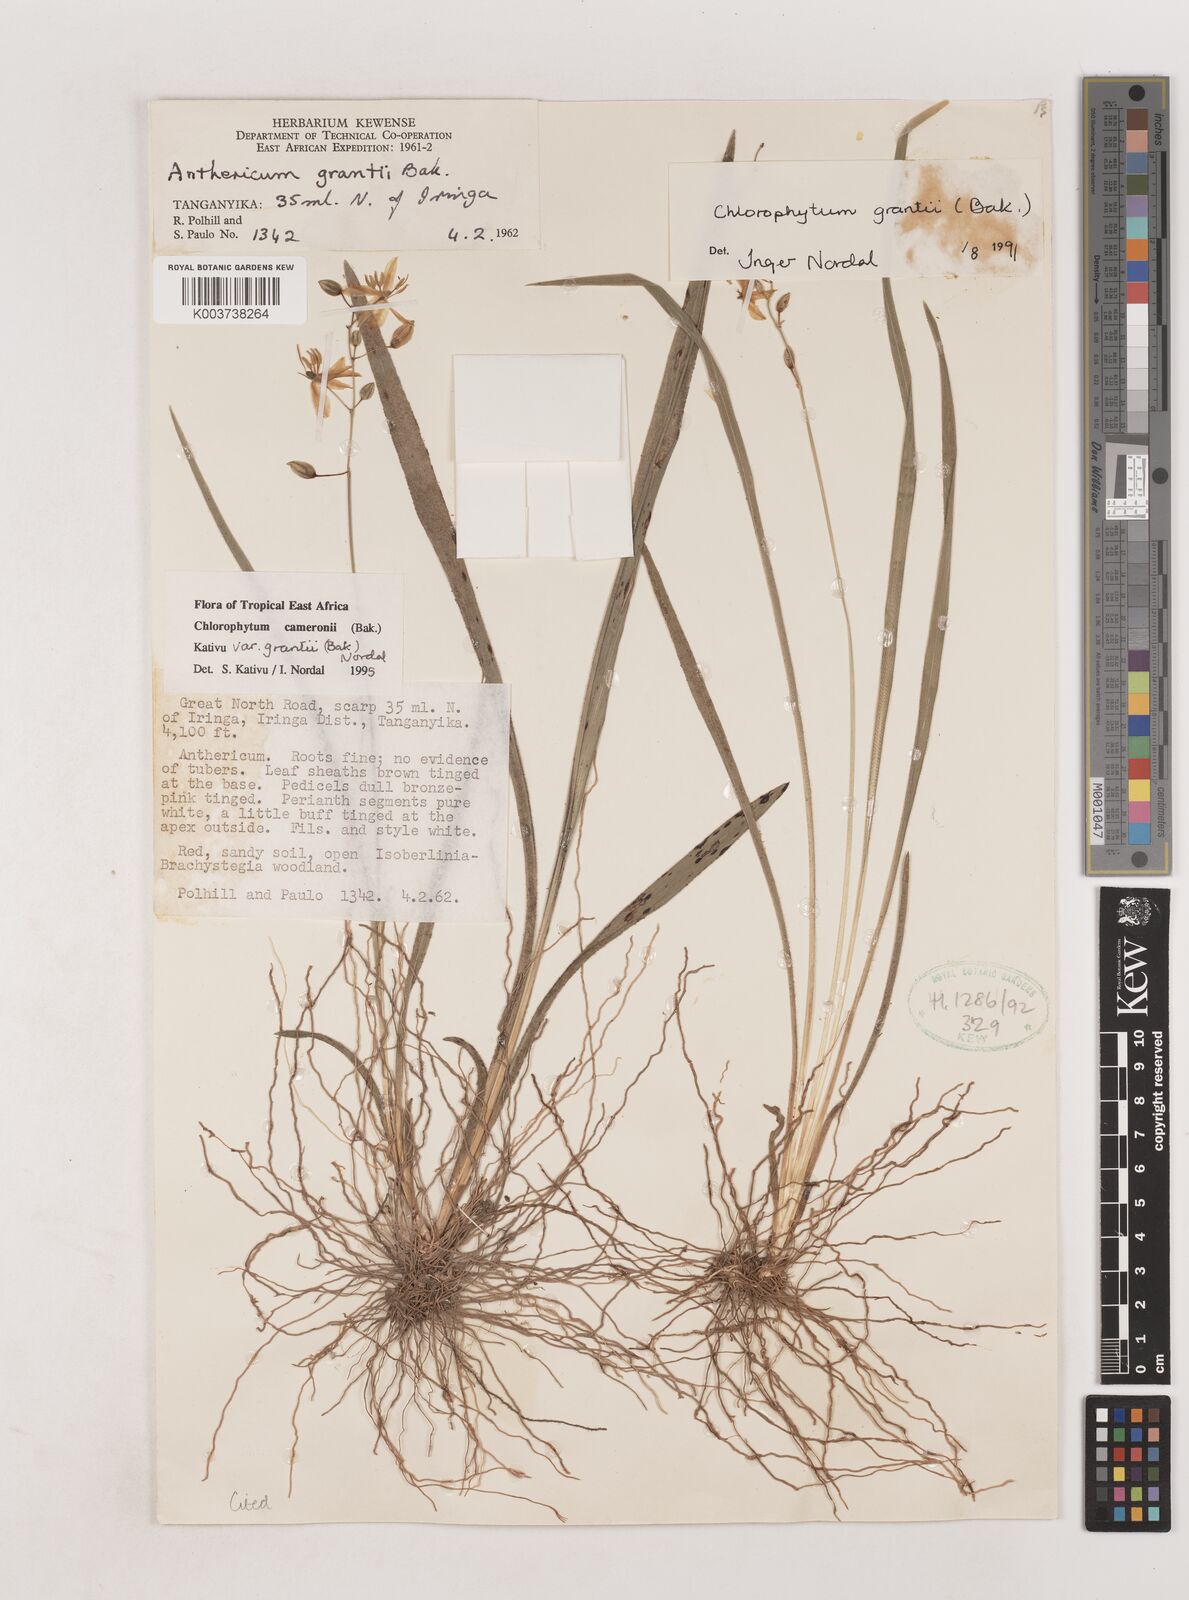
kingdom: Plantae
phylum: Tracheophyta
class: Liliopsida
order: Asparagales
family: Asparagaceae
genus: Chlorophytum
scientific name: Chlorophytum cameronii
